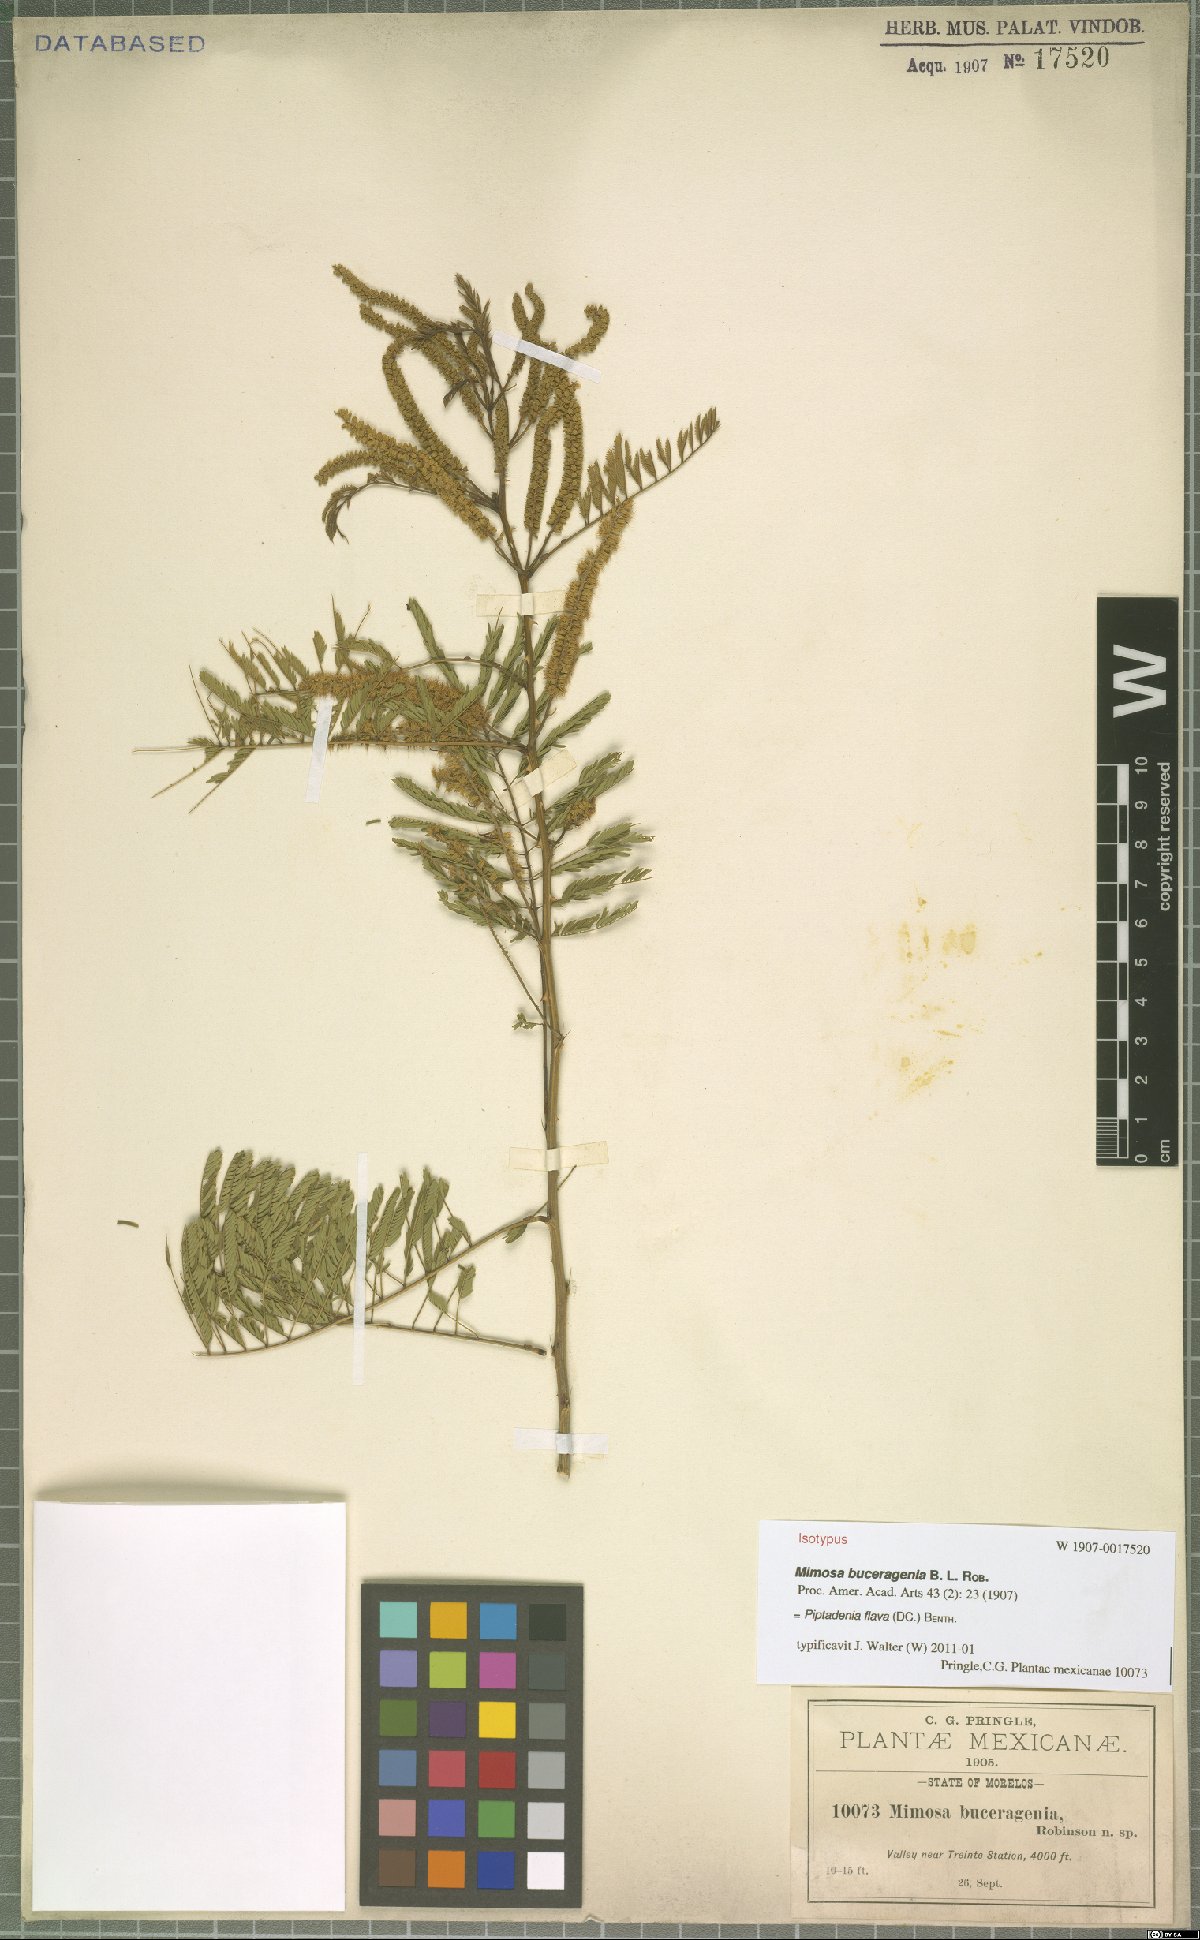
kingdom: Plantae
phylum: Tracheophyta
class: Magnoliopsida
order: Fabales
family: Fabaceae
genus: Piptadenia
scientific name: Piptadenia retusa
